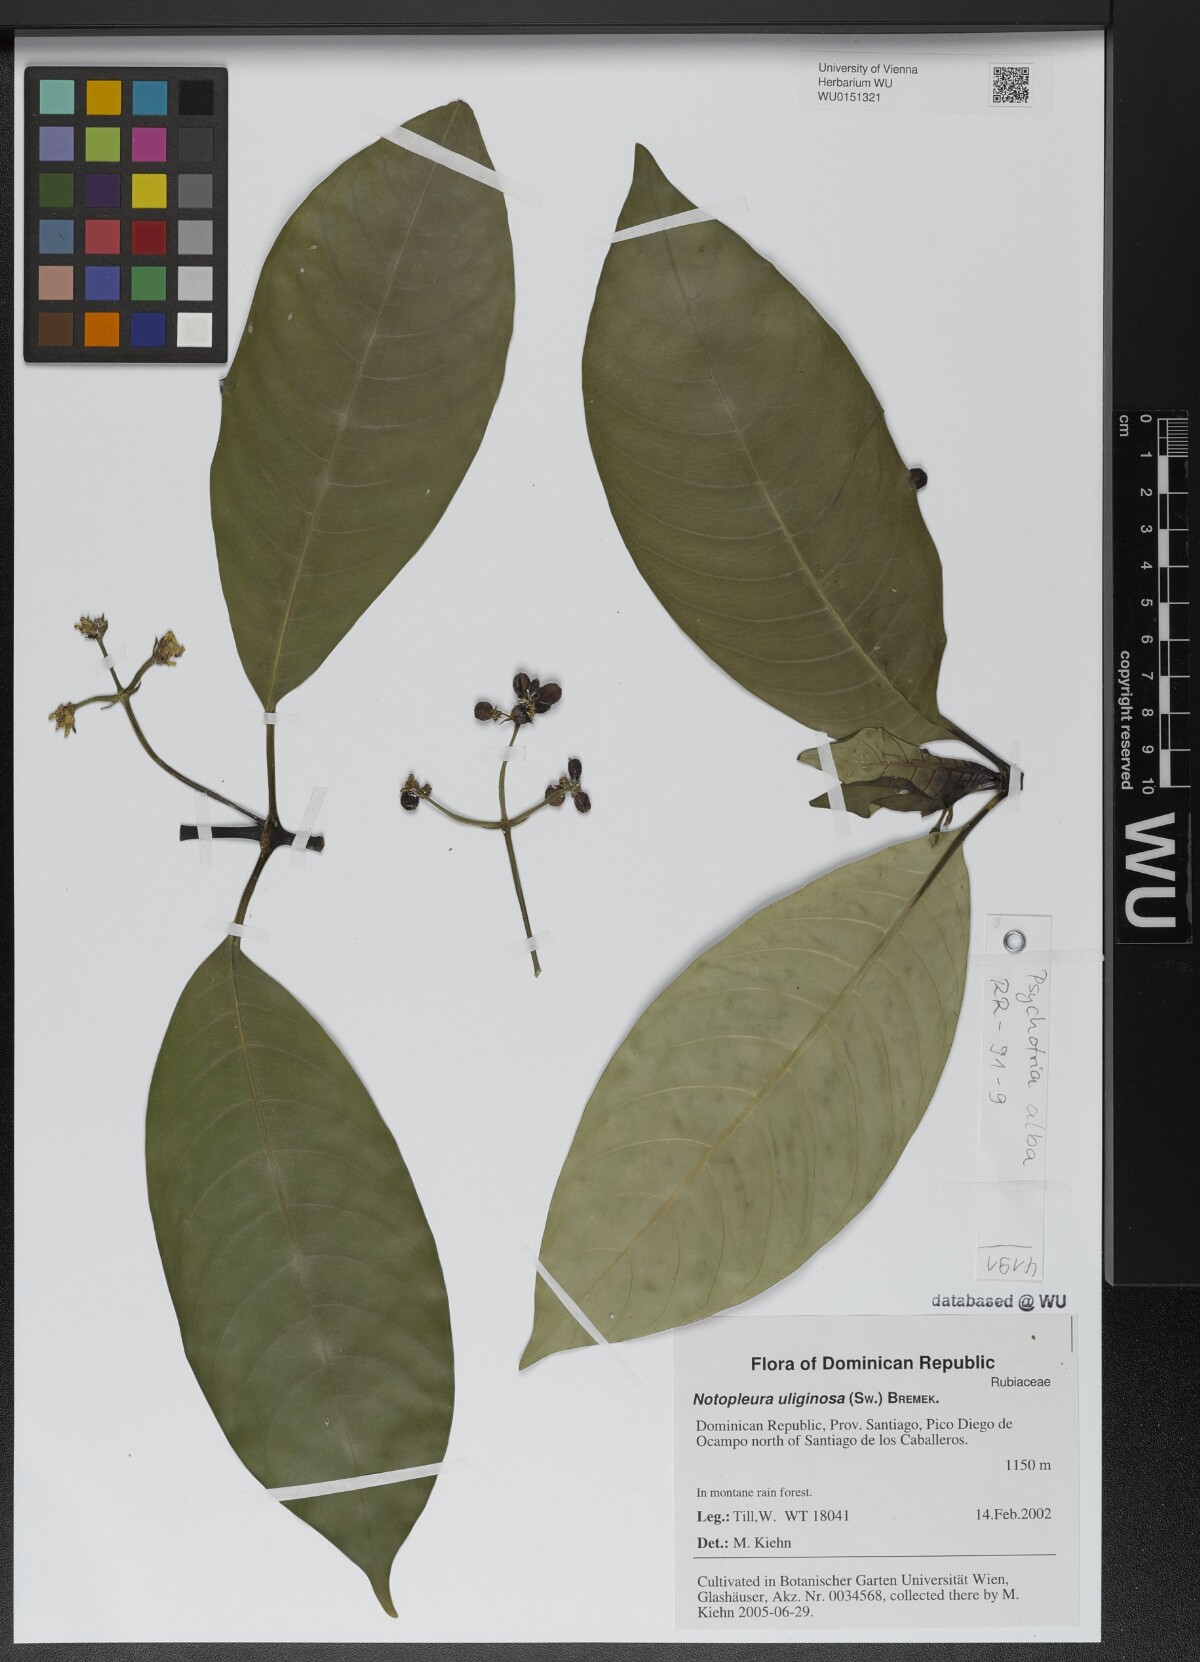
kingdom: Plantae
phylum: Tracheophyta
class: Magnoliopsida
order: Gentianales
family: Rubiaceae
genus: Notopleura
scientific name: Notopleura uliginosa
